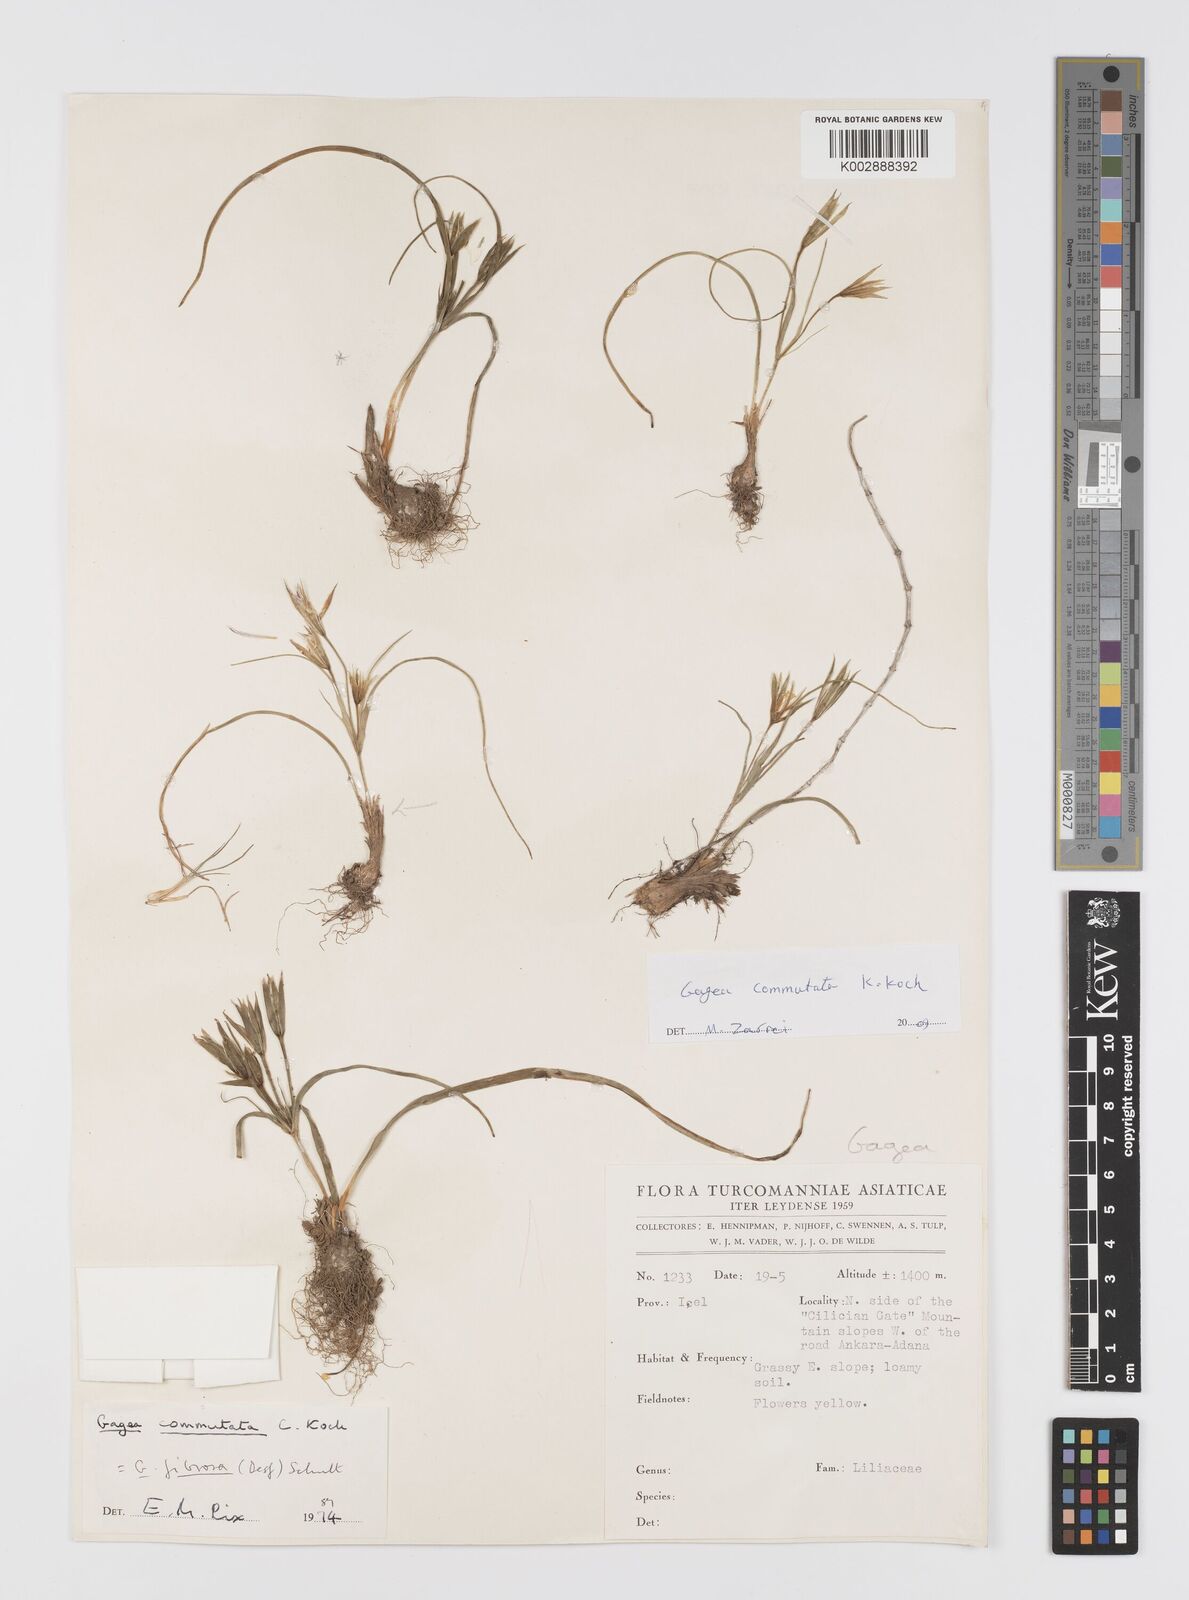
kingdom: Plantae
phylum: Tracheophyta
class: Liliopsida
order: Liliales
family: Liliaceae
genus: Gagea
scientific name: Gagea commutata
